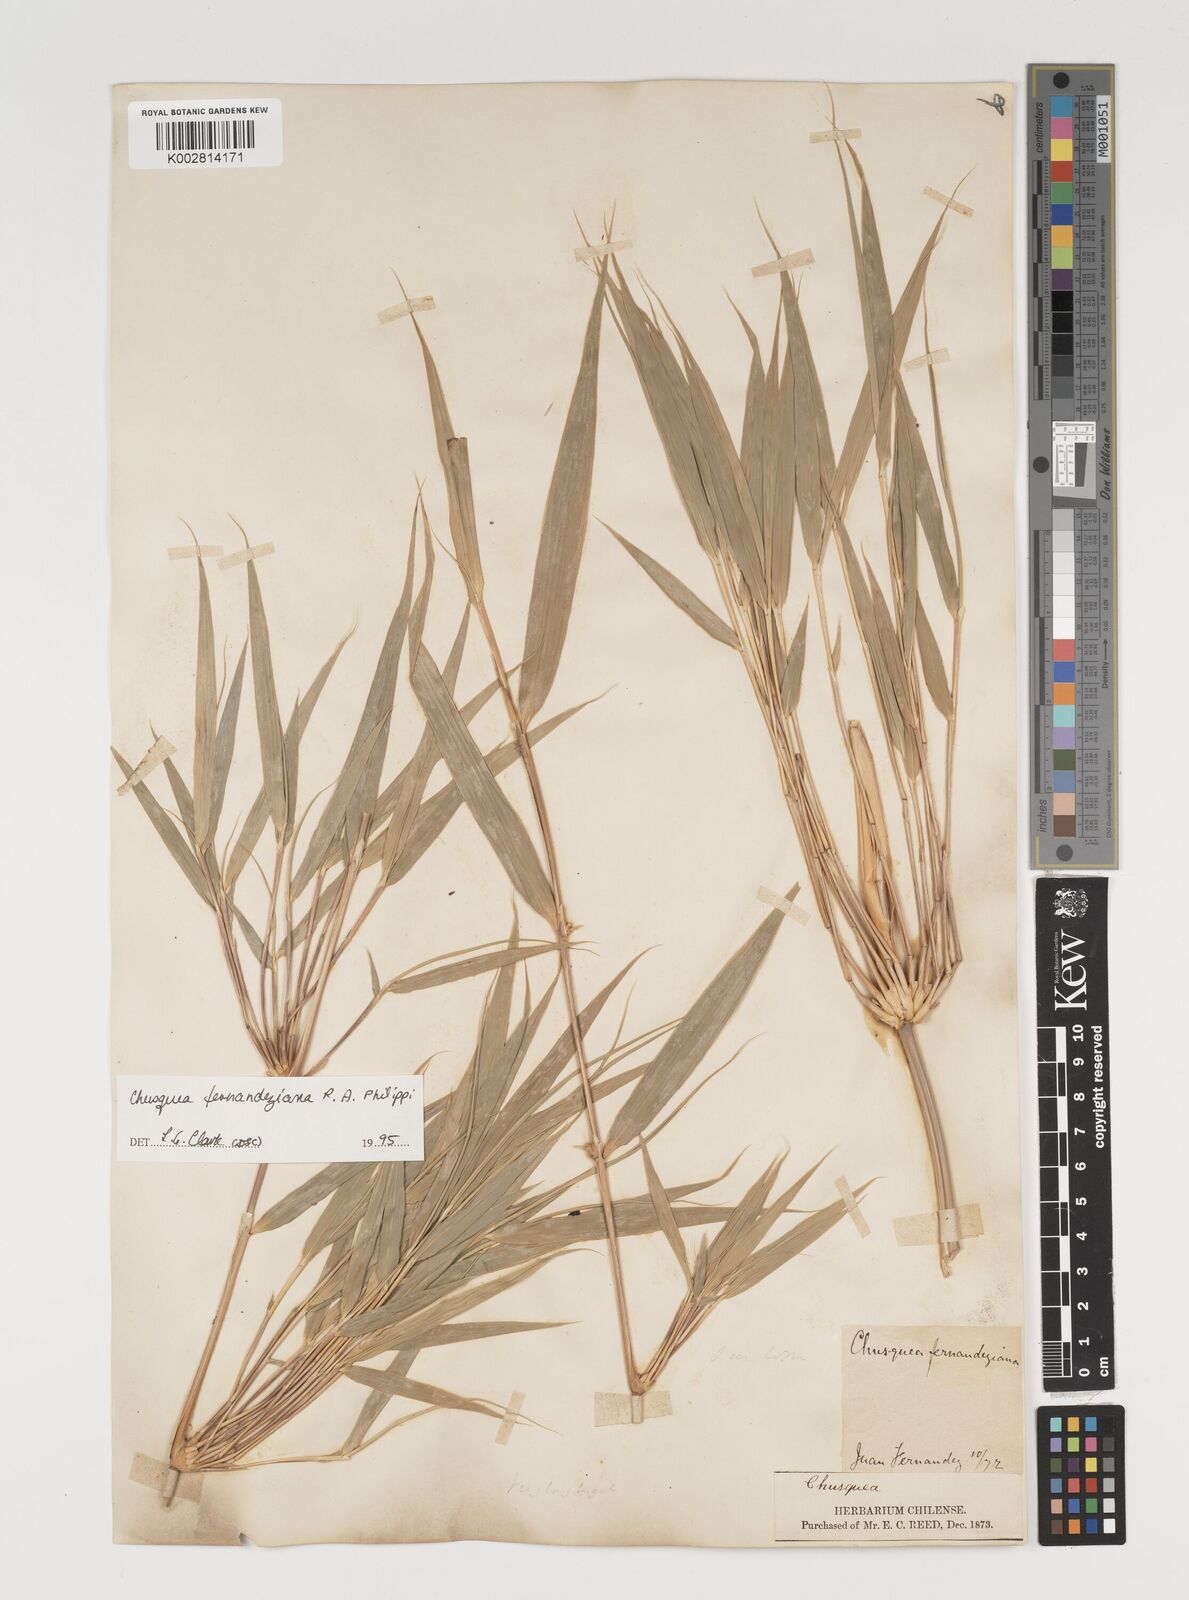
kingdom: Plantae
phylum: Tracheophyta
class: Liliopsida
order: Poales
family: Poaceae
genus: Chusquea
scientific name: Chusquea ligulata
